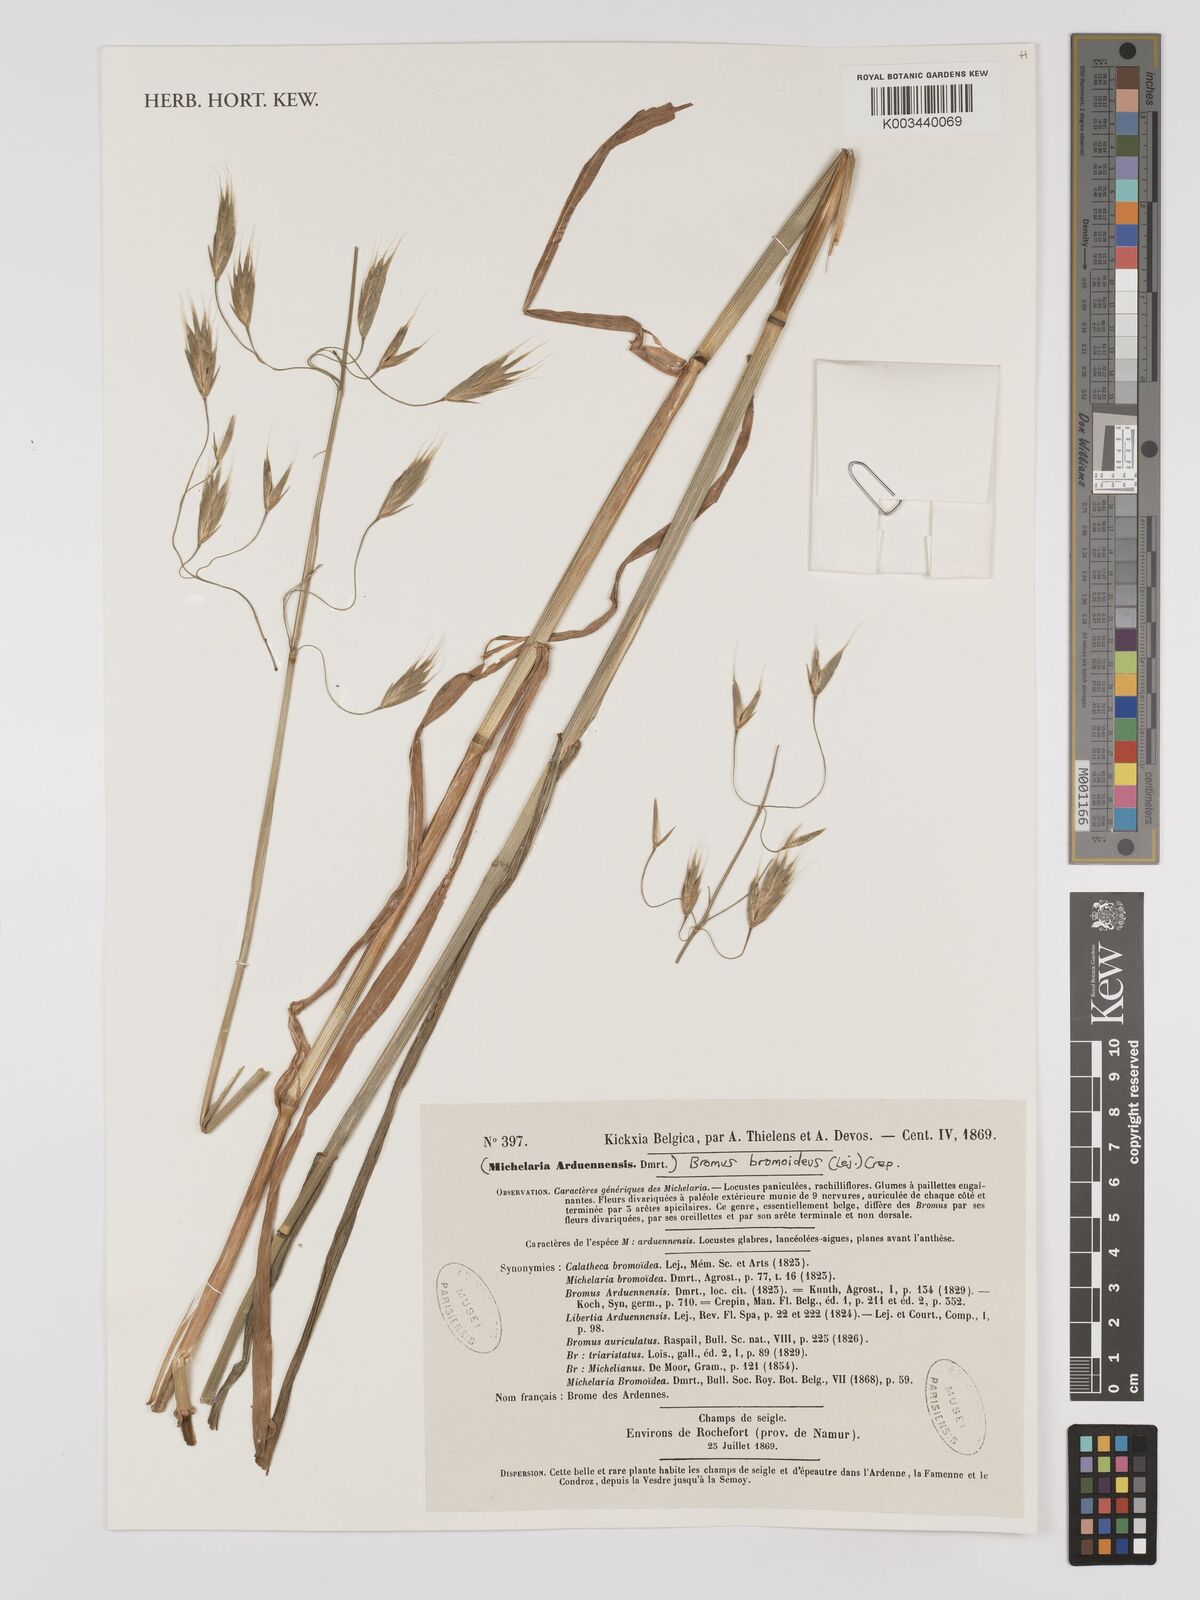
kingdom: Plantae
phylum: Tracheophyta
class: Liliopsida
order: Poales
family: Poaceae
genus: Bromus
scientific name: Bromus bromoideus
